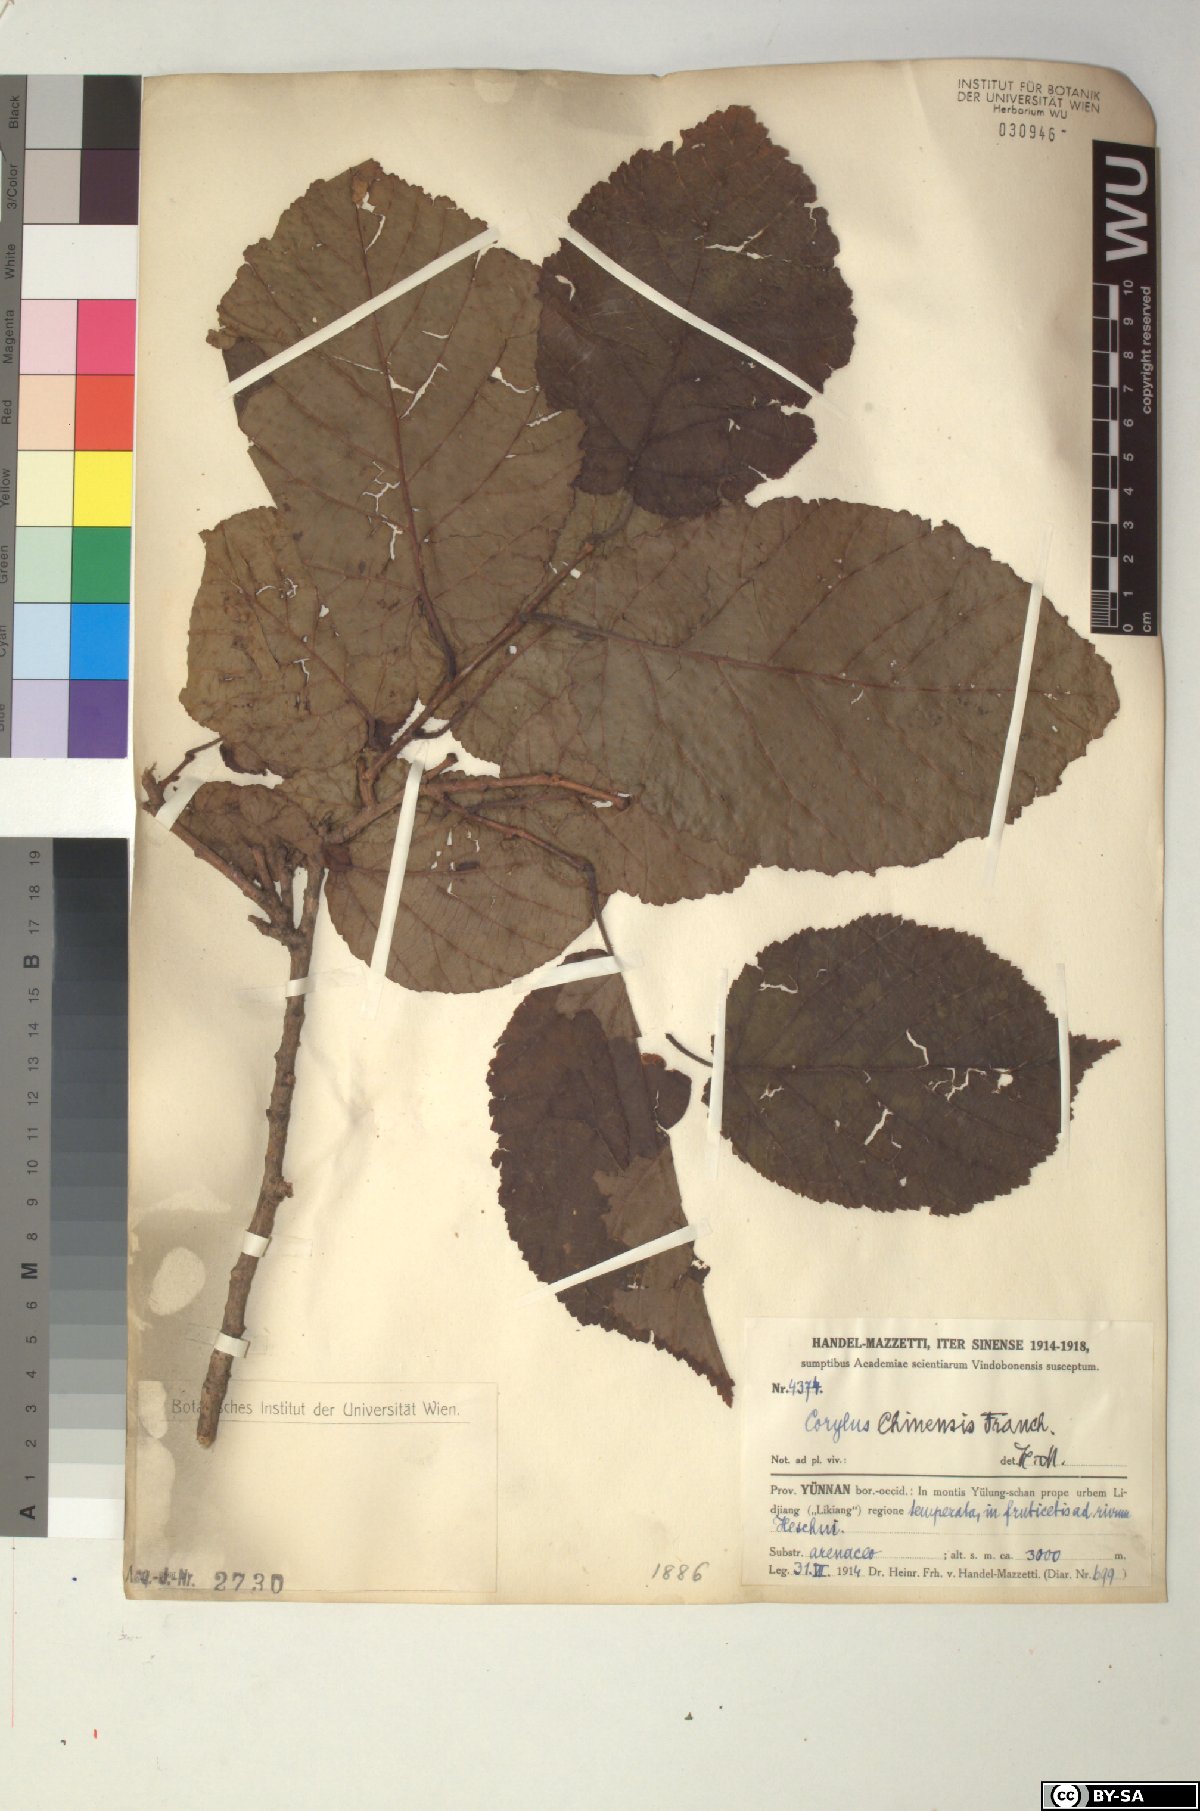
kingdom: Plantae
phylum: Tracheophyta
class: Magnoliopsida
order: Fagales
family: Betulaceae
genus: Corylus
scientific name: Corylus chinensis
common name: Chinese hazlenut
